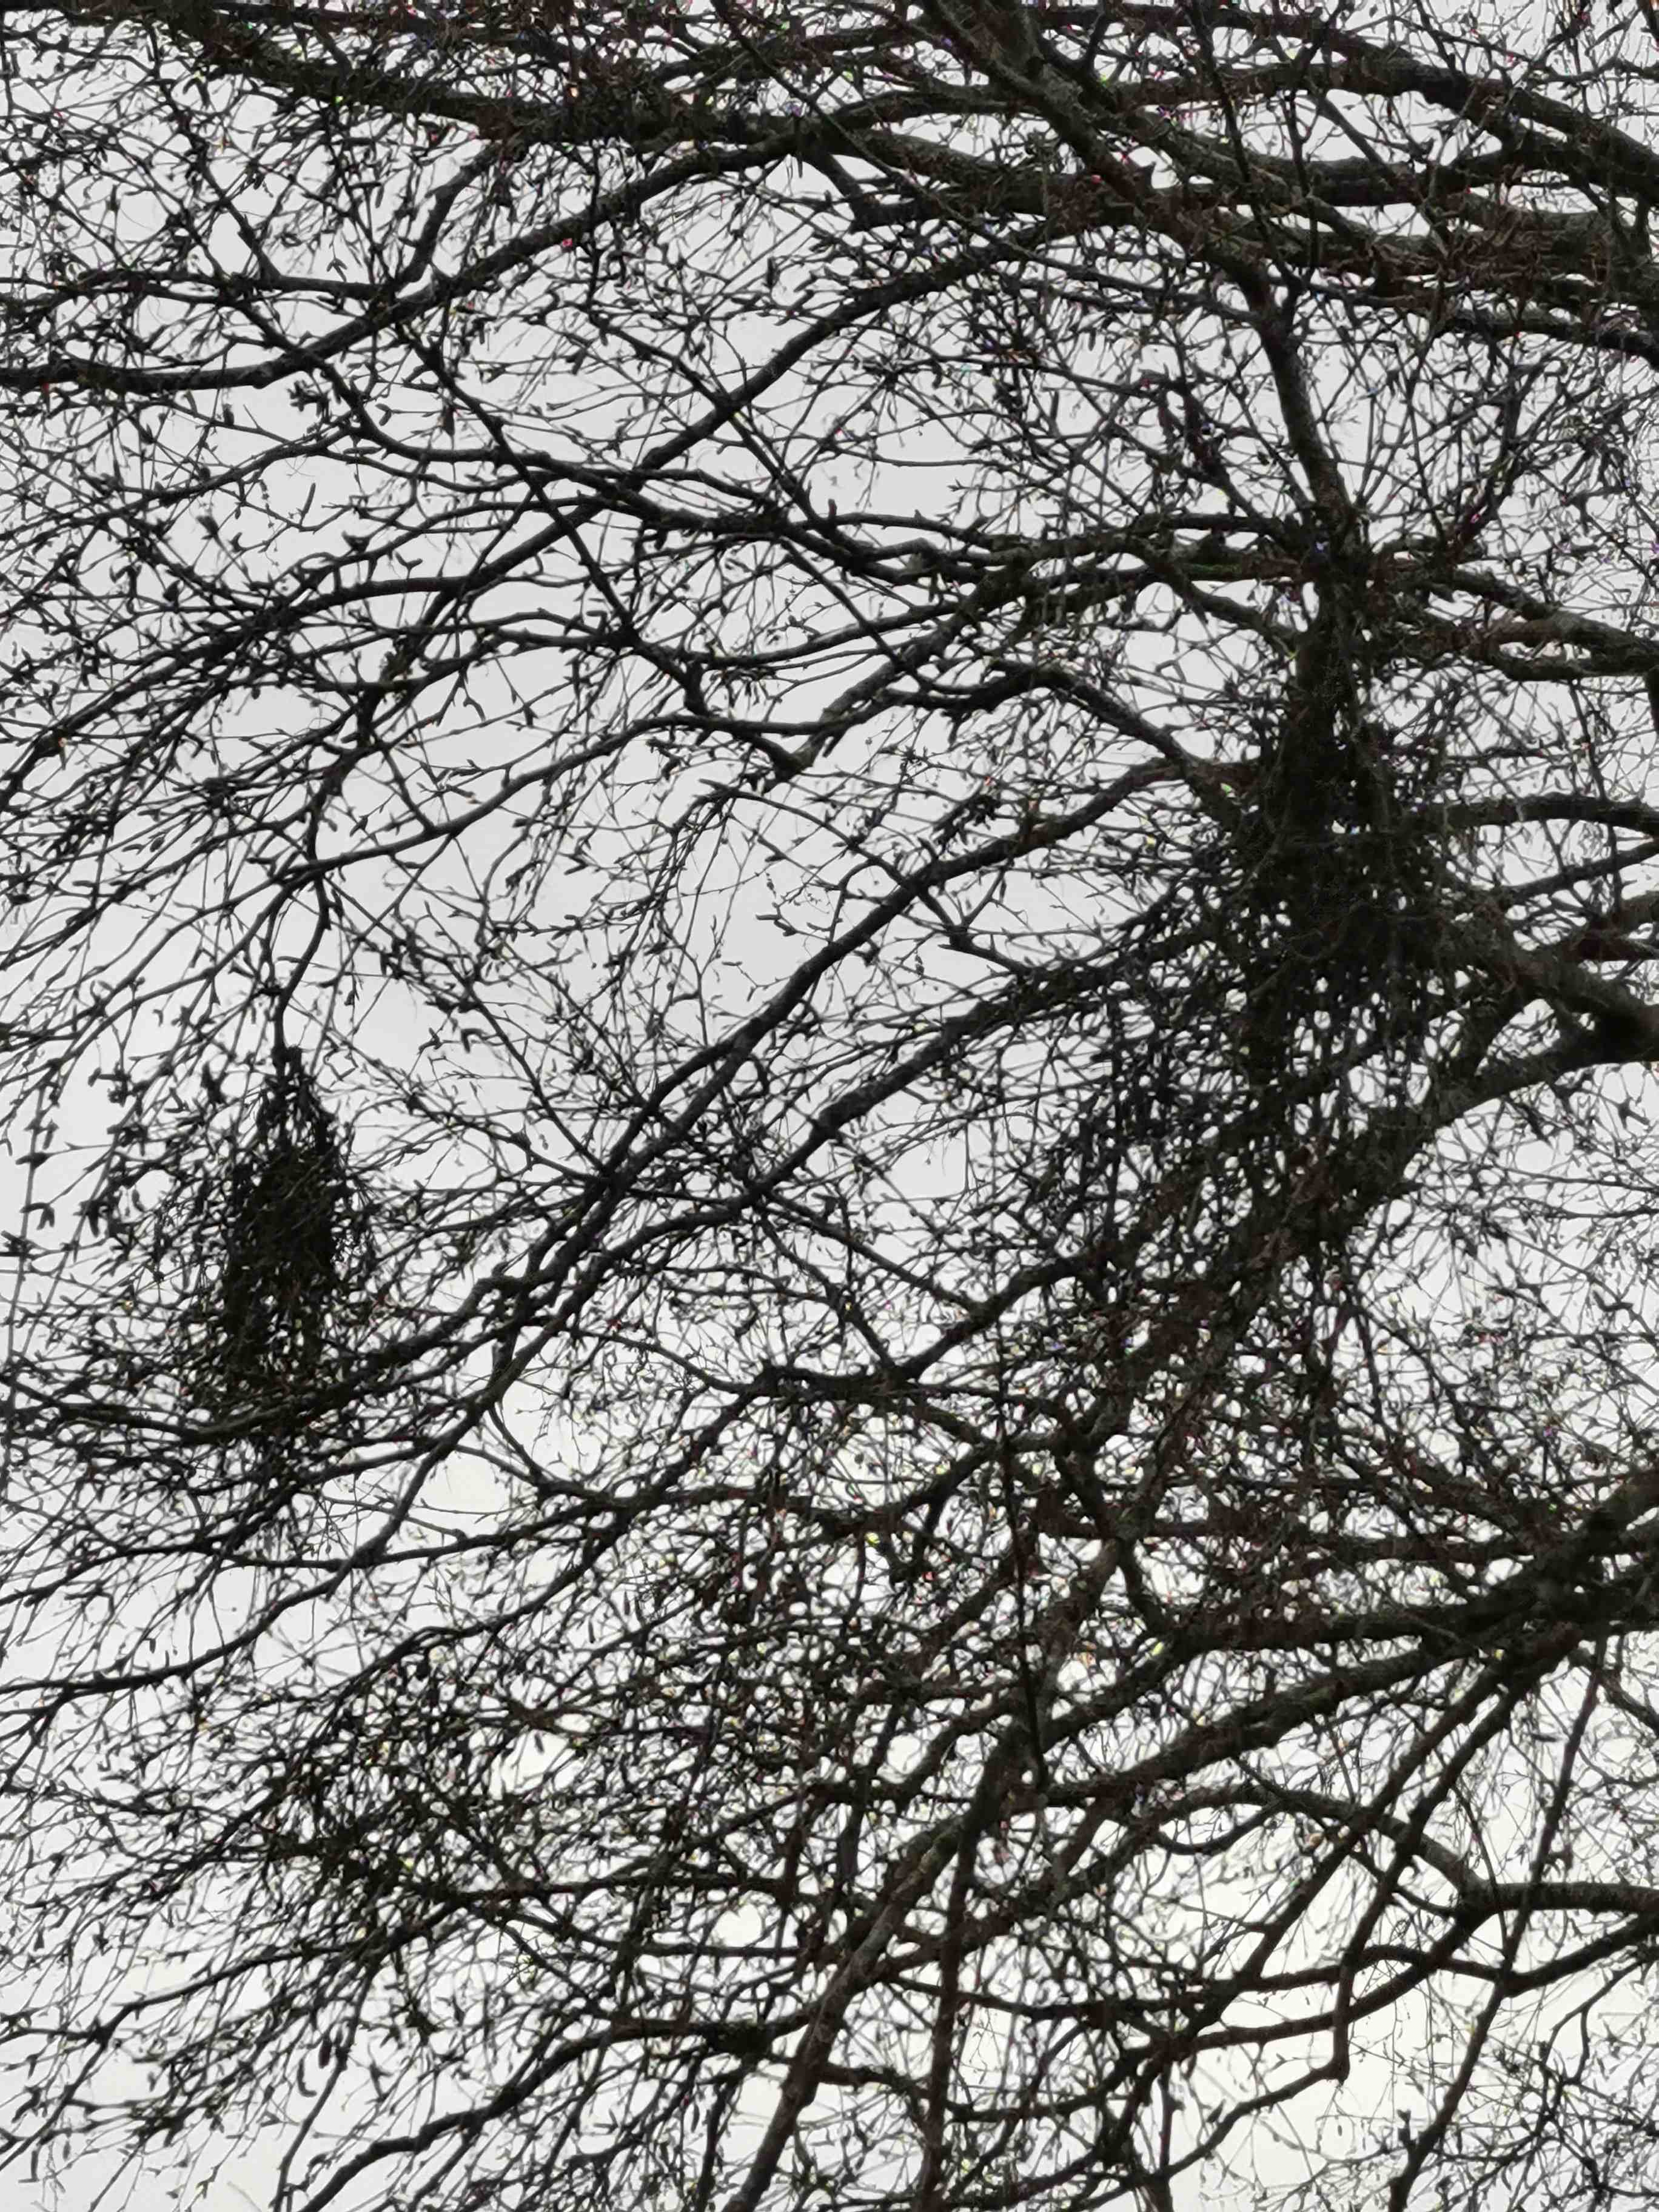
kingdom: Fungi
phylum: Ascomycota
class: Taphrinomycetes
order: Taphrinales
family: Taphrinaceae
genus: Taphrina
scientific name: Taphrina betulina
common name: hekse-sækdug
